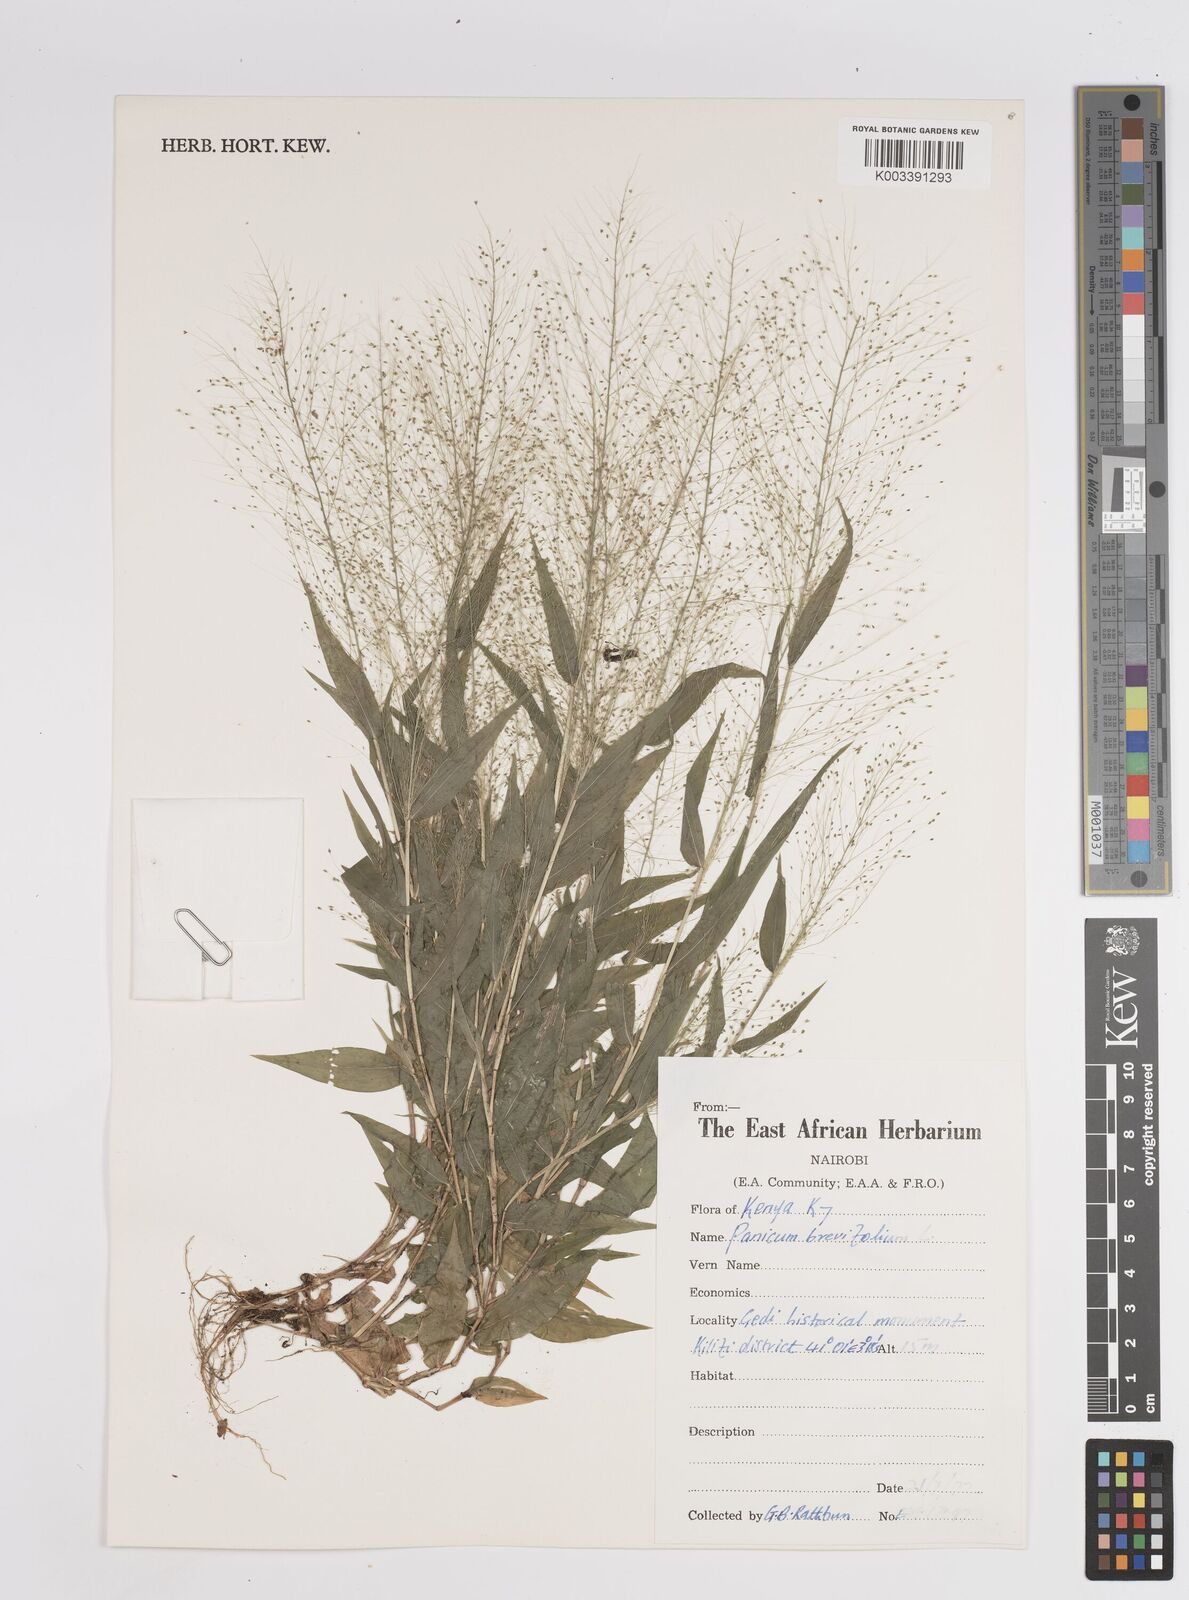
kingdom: Plantae
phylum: Tracheophyta
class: Liliopsida
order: Poales
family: Poaceae
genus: Panicum
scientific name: Panicum brevifolium
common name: Shortleaf panic grass
